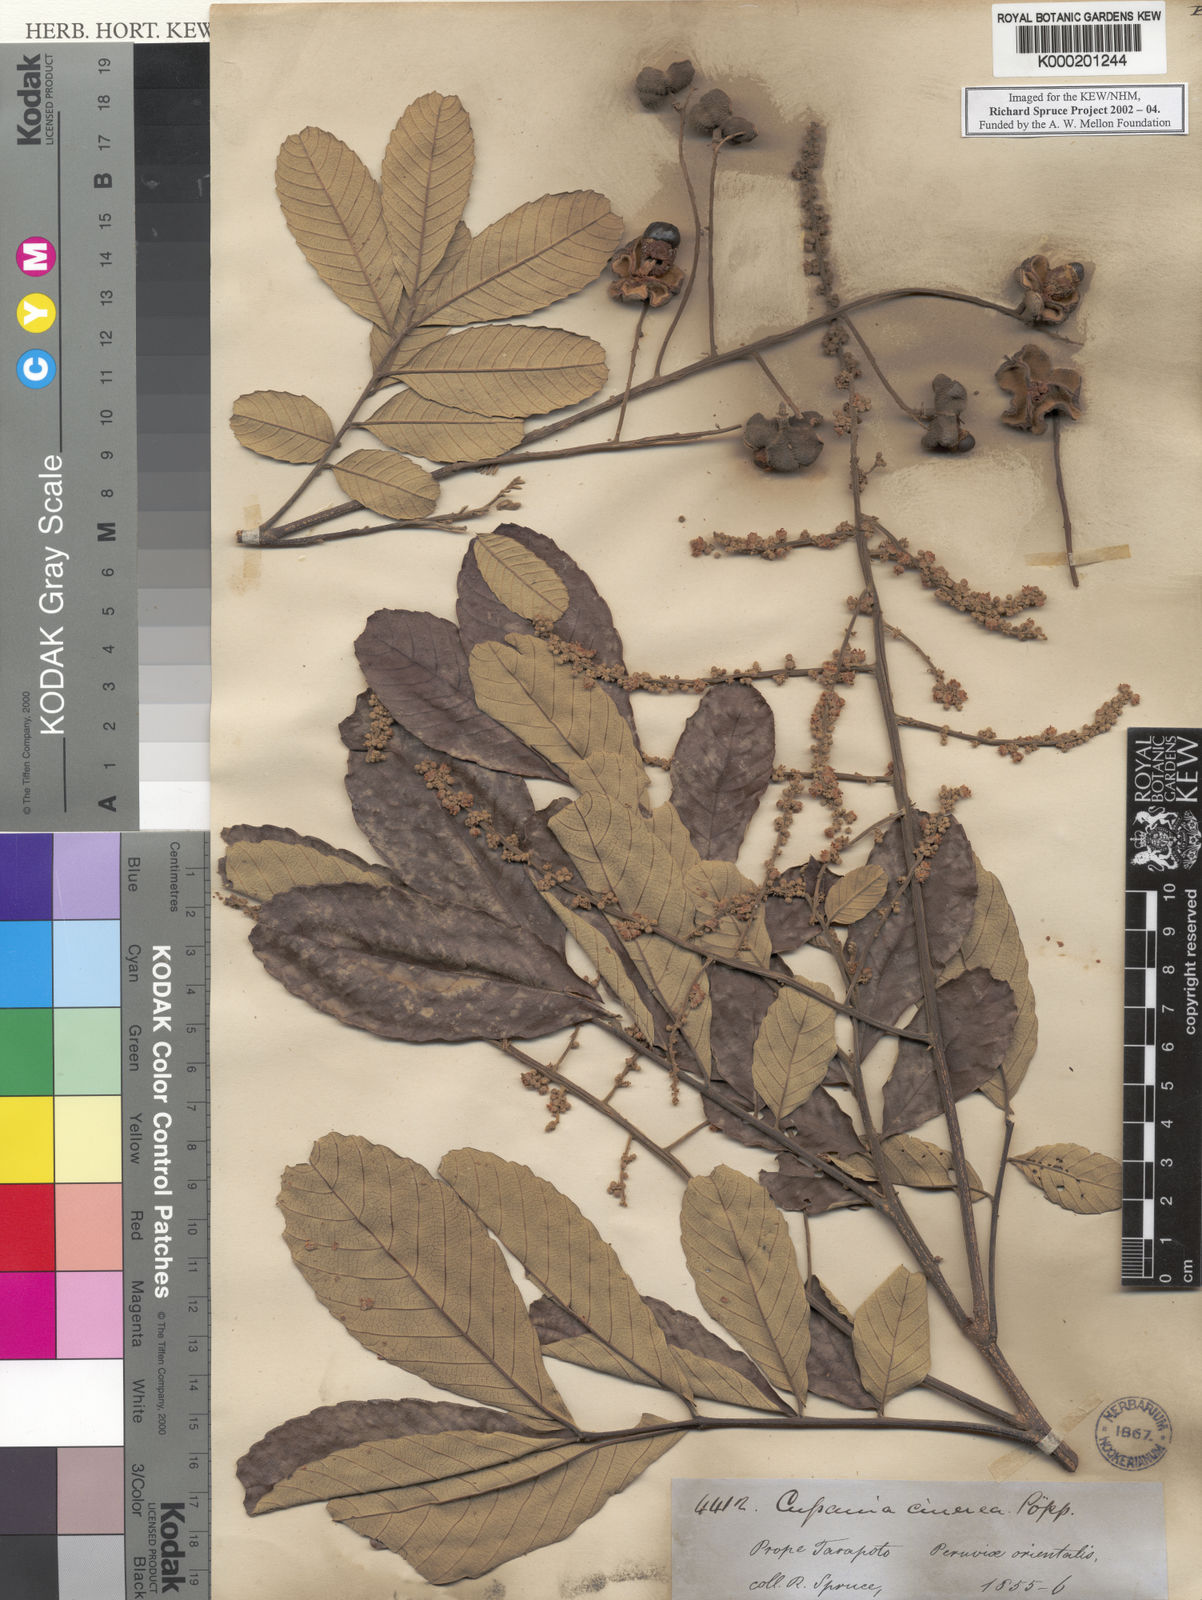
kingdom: Plantae
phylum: Tracheophyta
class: Magnoliopsida
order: Sapindales
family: Sapindaceae
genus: Cupania
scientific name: Cupania cinerea
